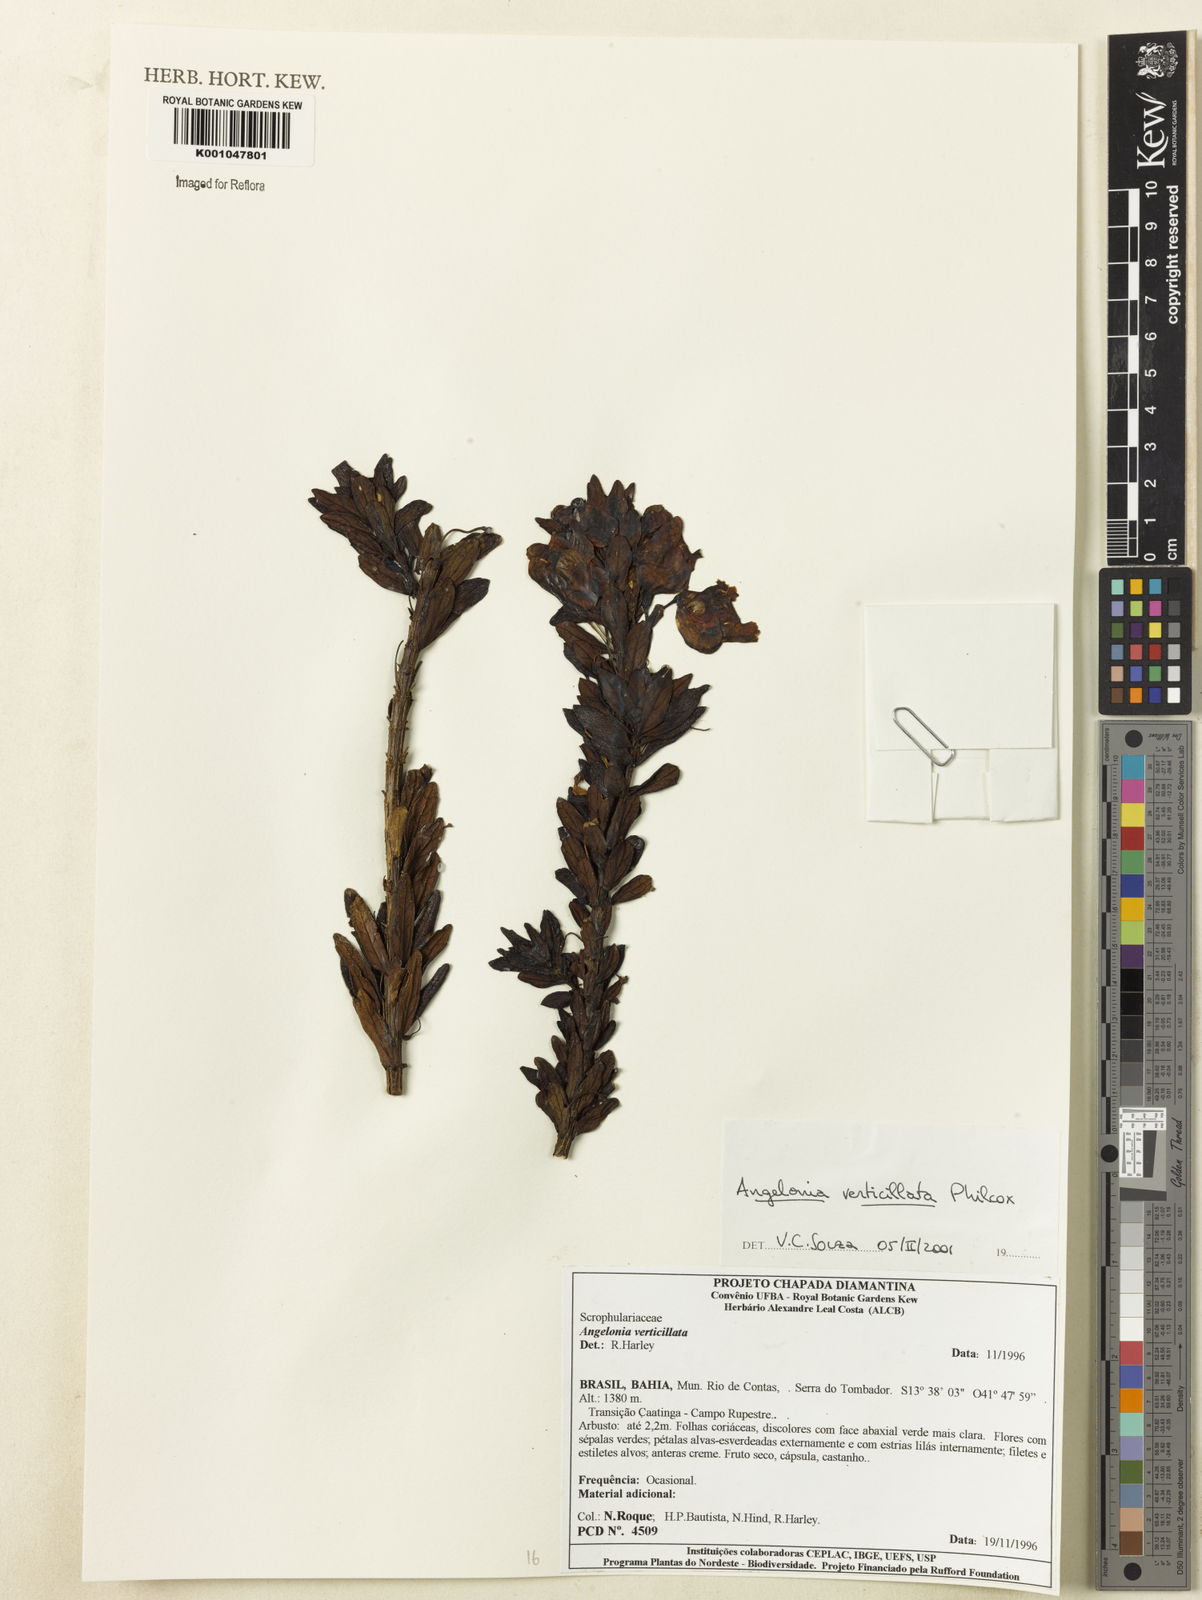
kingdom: Plantae
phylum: Tracheophyta
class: Magnoliopsida
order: Lamiales
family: Plantaginaceae
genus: Angelonia
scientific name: Angelonia verticillata
